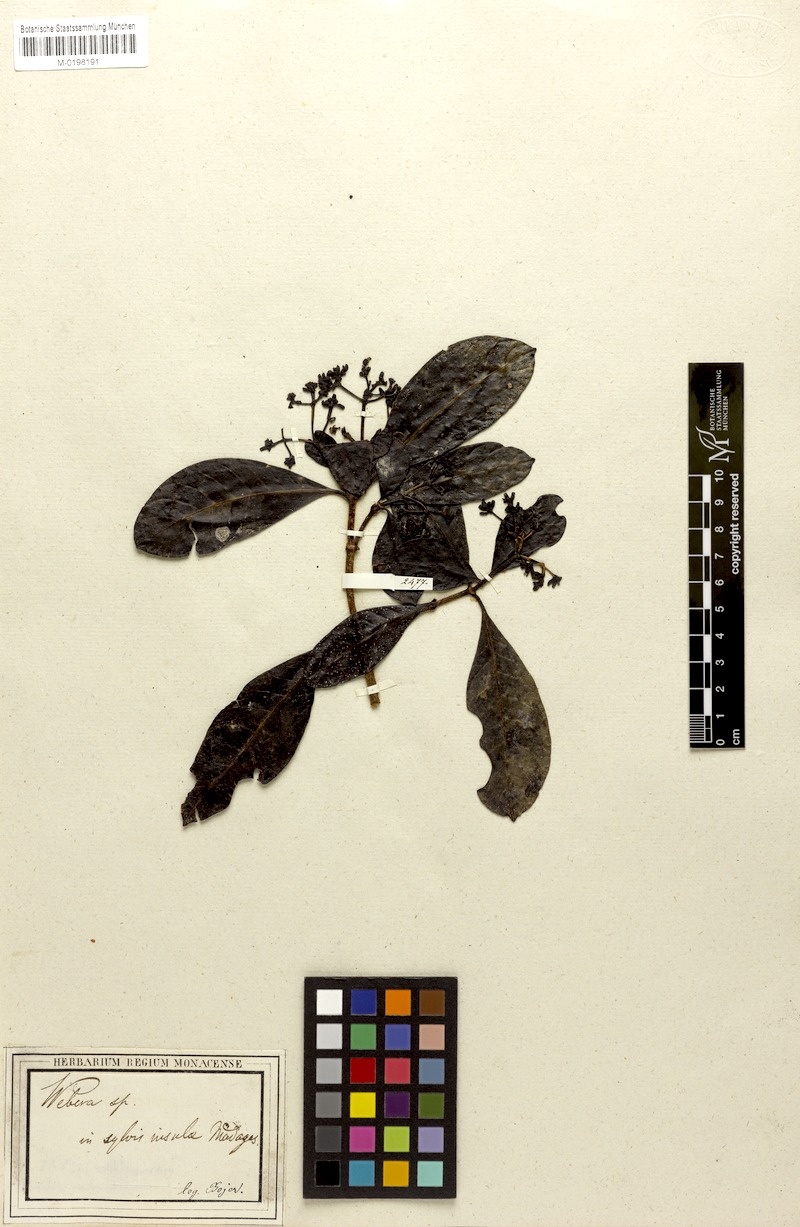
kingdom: Plantae
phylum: Tracheophyta
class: Magnoliopsida
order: Gentianales
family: Rubiaceae
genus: Morinda
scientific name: Morinda
